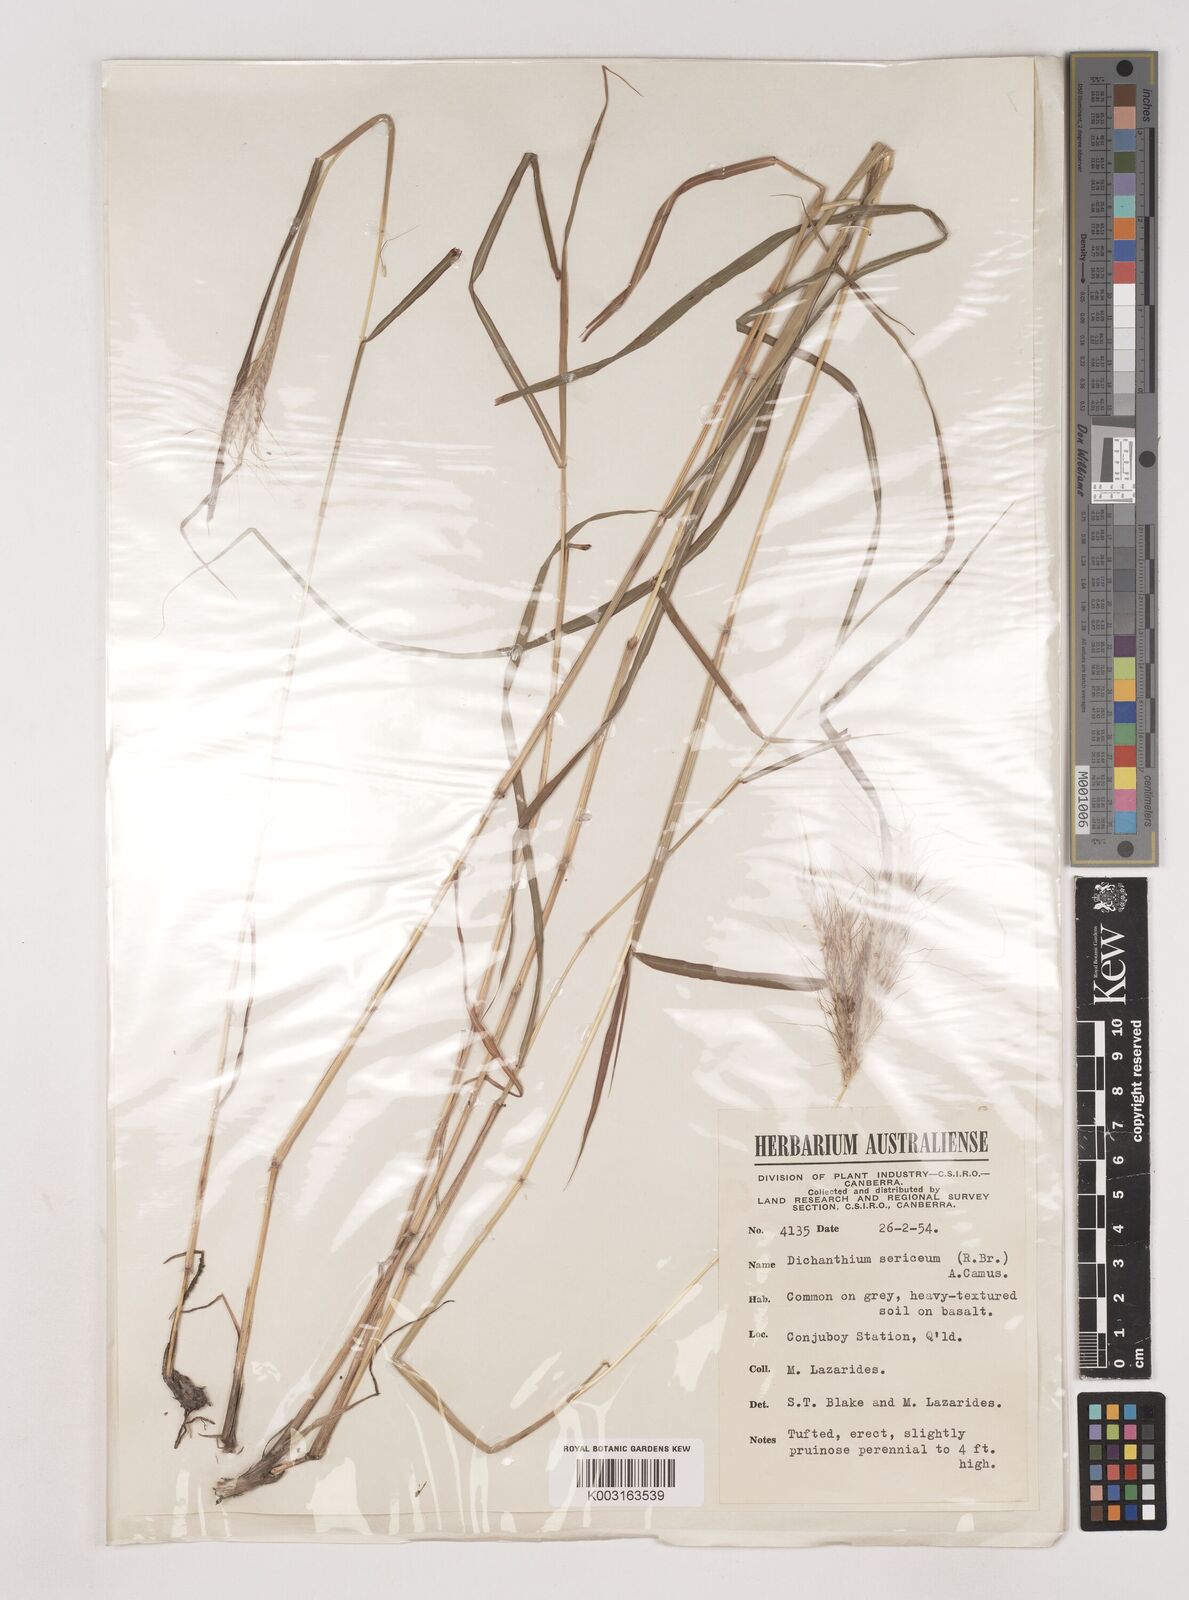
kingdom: Plantae
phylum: Tracheophyta
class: Liliopsida
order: Poales
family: Poaceae
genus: Dichanthium
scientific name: Dichanthium sericeum
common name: Silky bluestem
